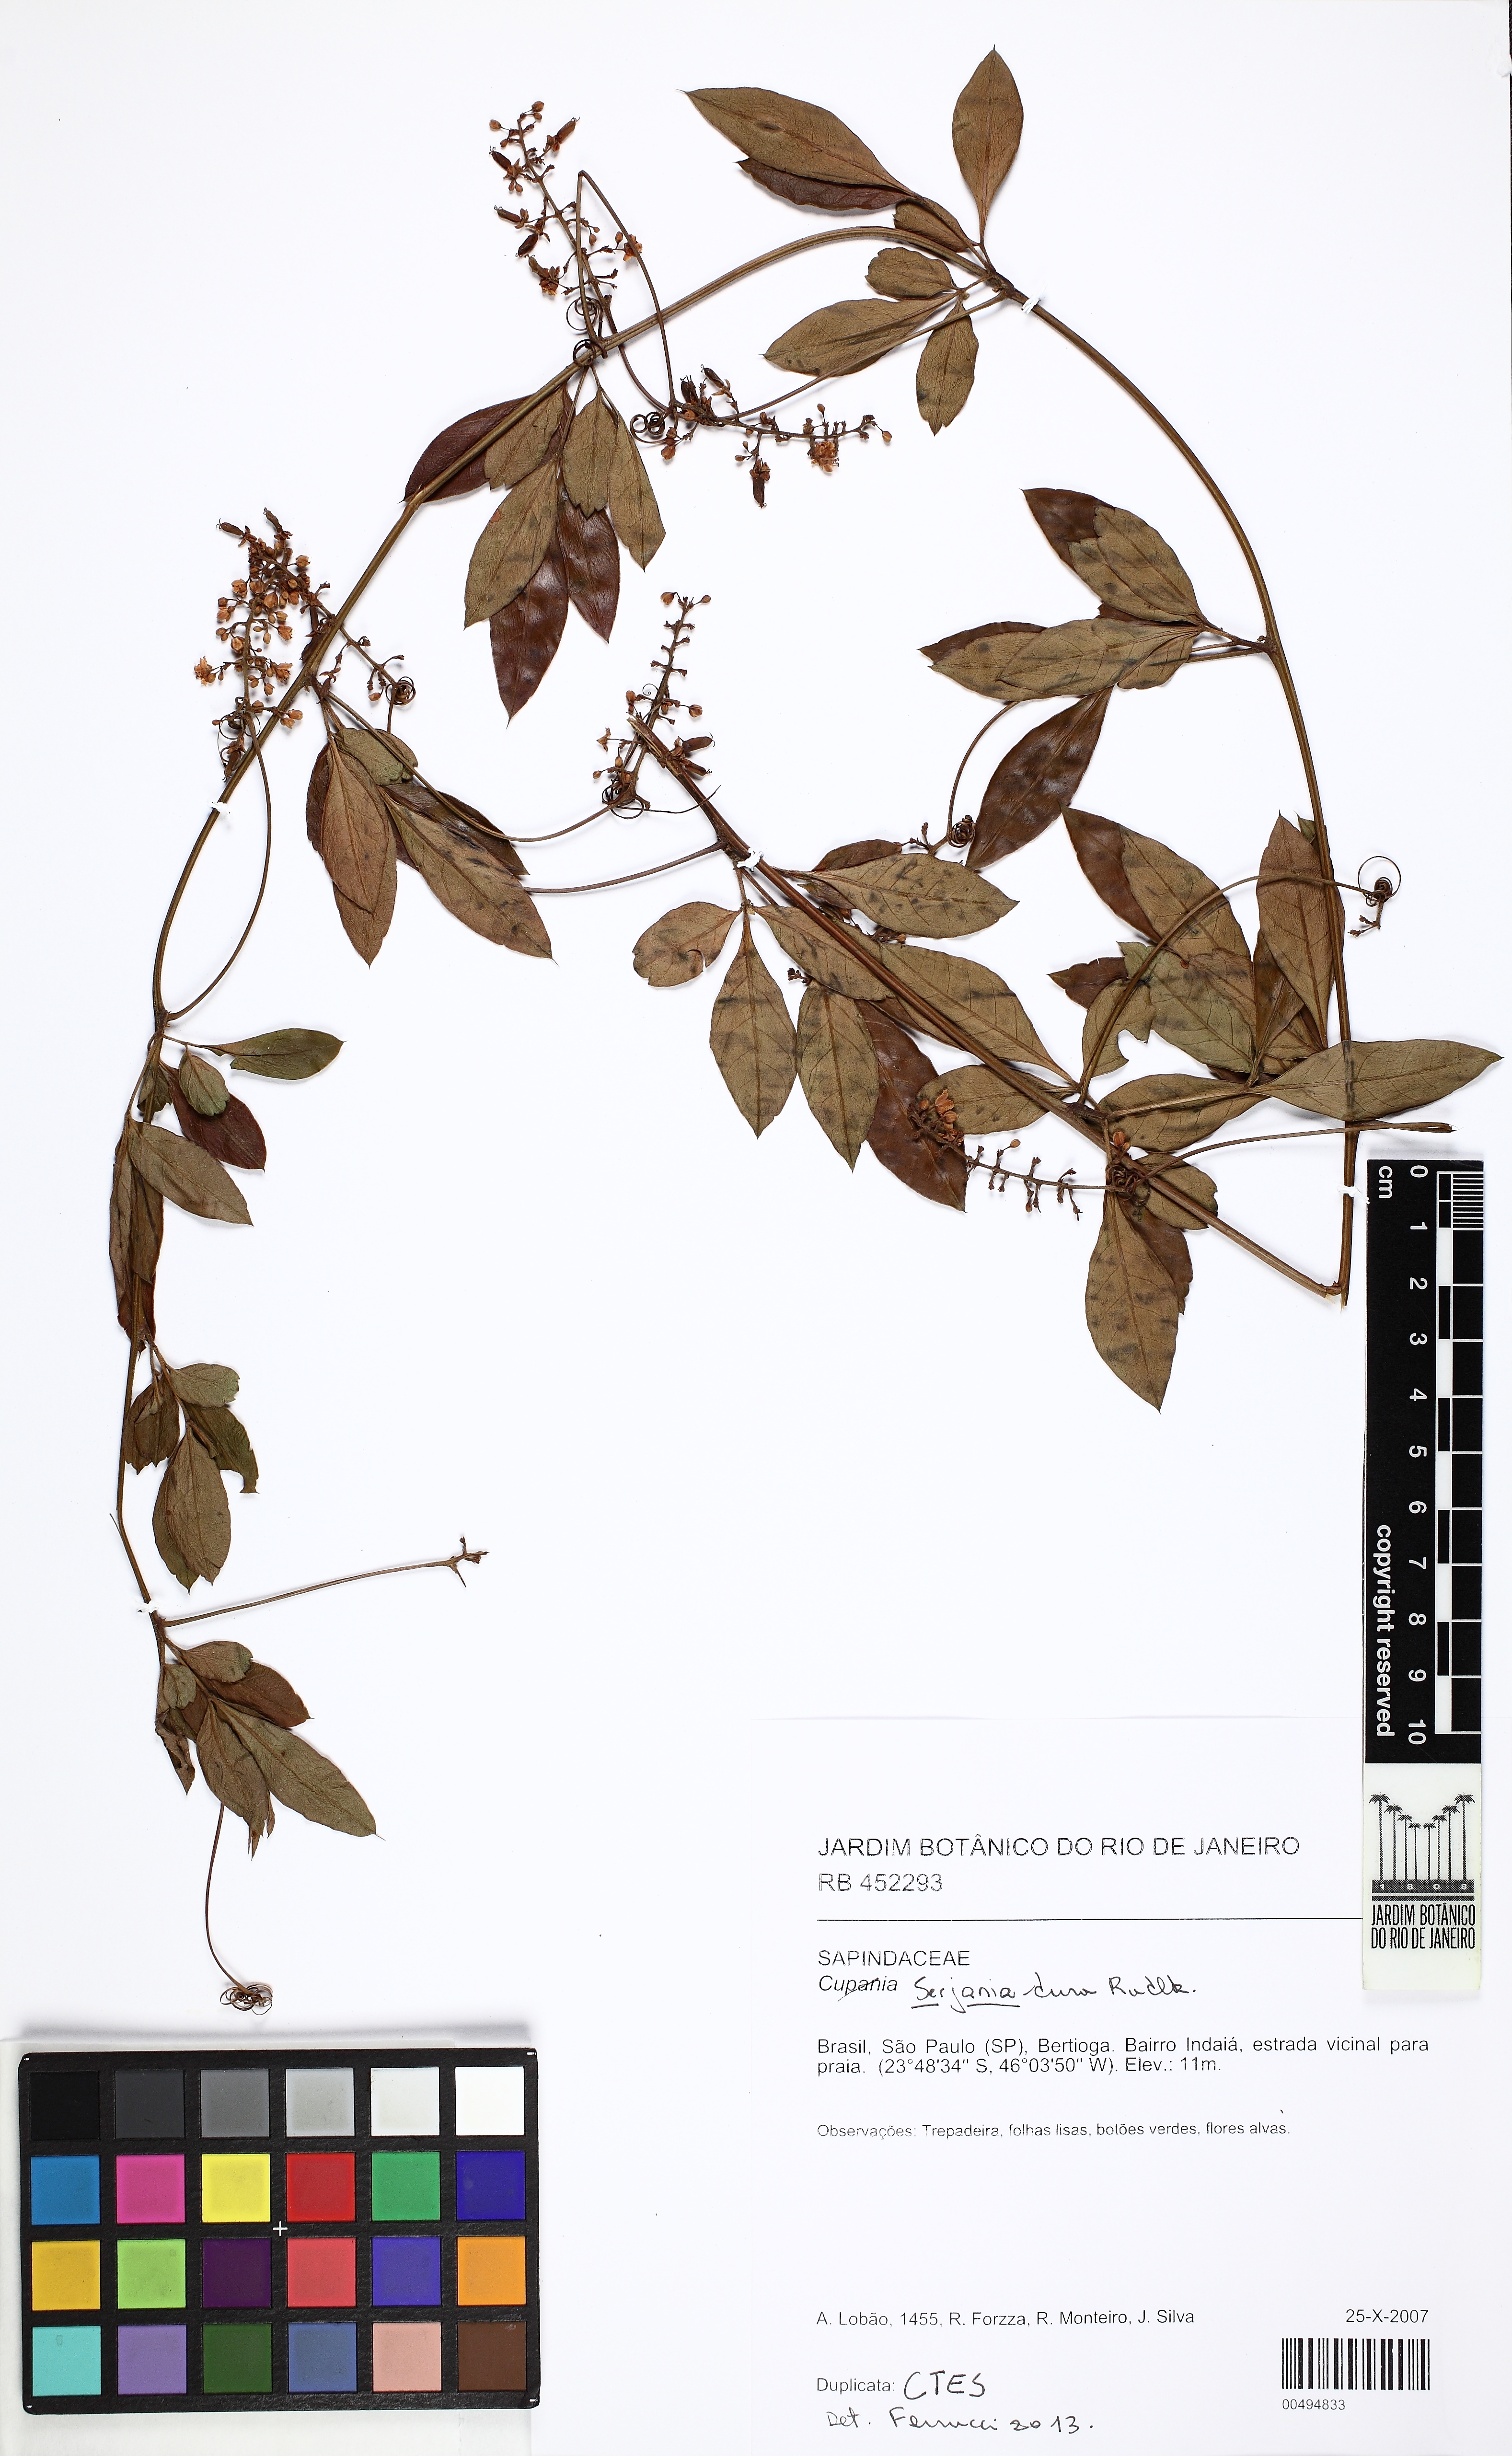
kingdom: Plantae
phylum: Tracheophyta
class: Magnoliopsida
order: Sapindales
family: Sapindaceae
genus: Serjania
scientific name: Serjania dura
